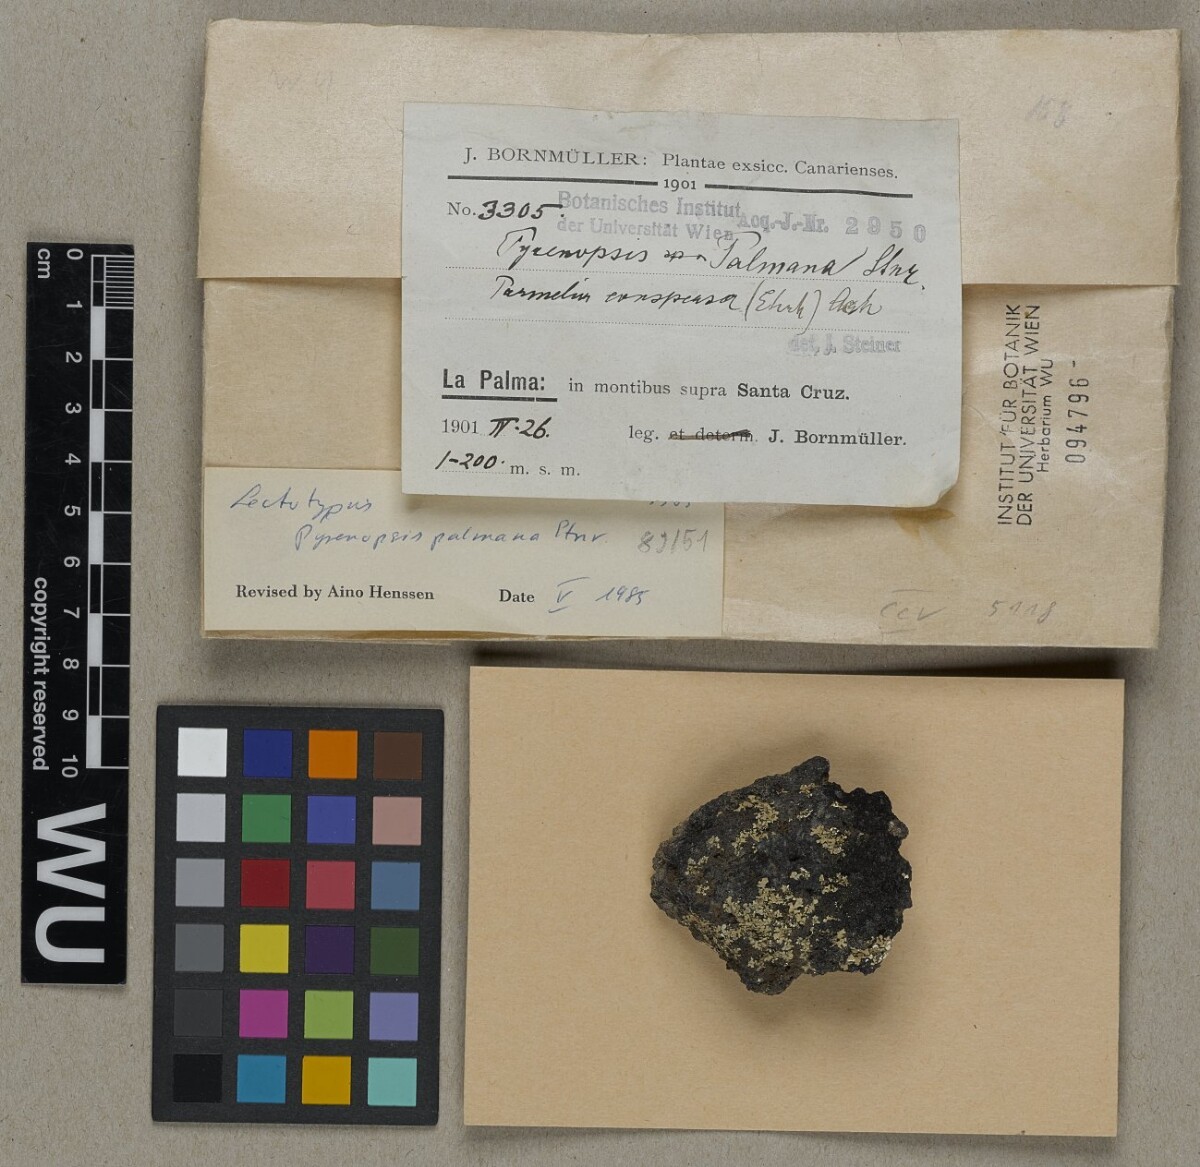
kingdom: Fungi
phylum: Ascomycota
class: Lichinomycetes
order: Lichinales
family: Lichinaceae
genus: Pyrenopsis
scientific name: Pyrenopsis
